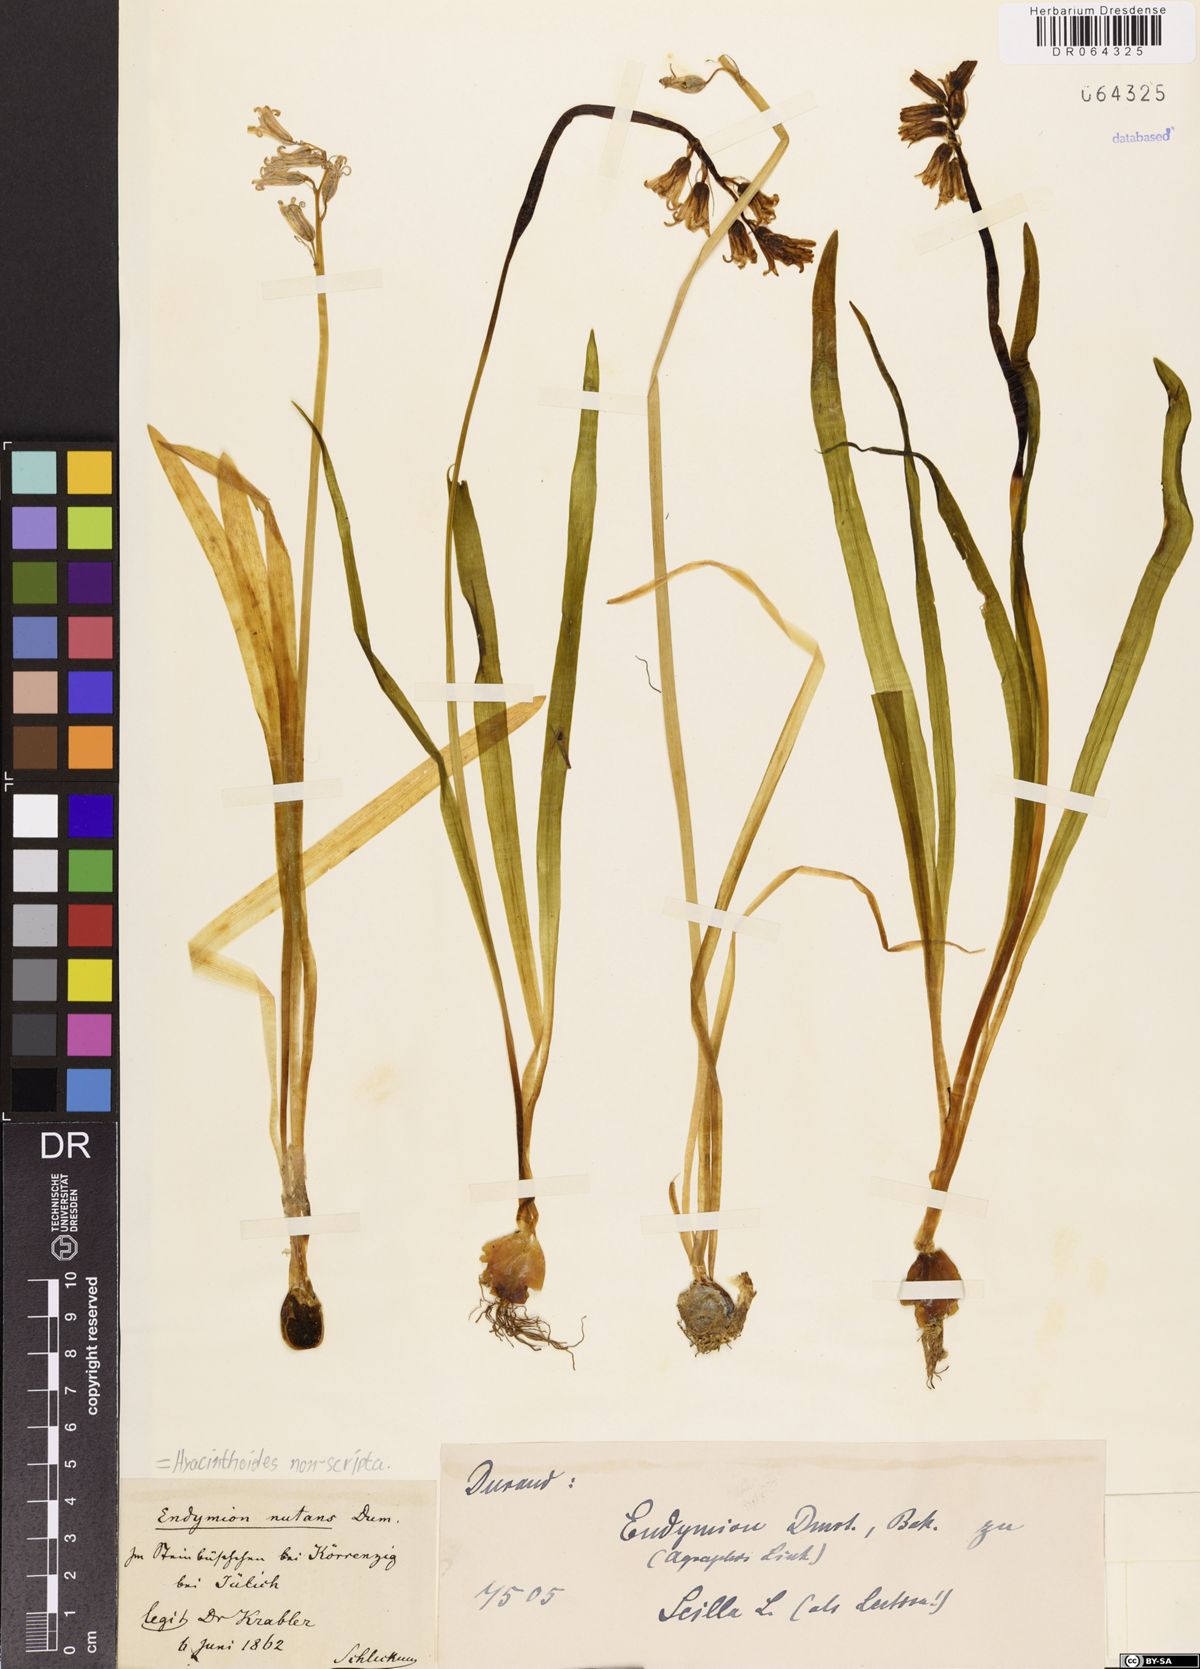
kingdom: Plantae
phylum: Tracheophyta
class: Liliopsida
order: Asparagales
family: Asparagaceae
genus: Hyacinthoides
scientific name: Hyacinthoides non-scripta
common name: Bluebell
